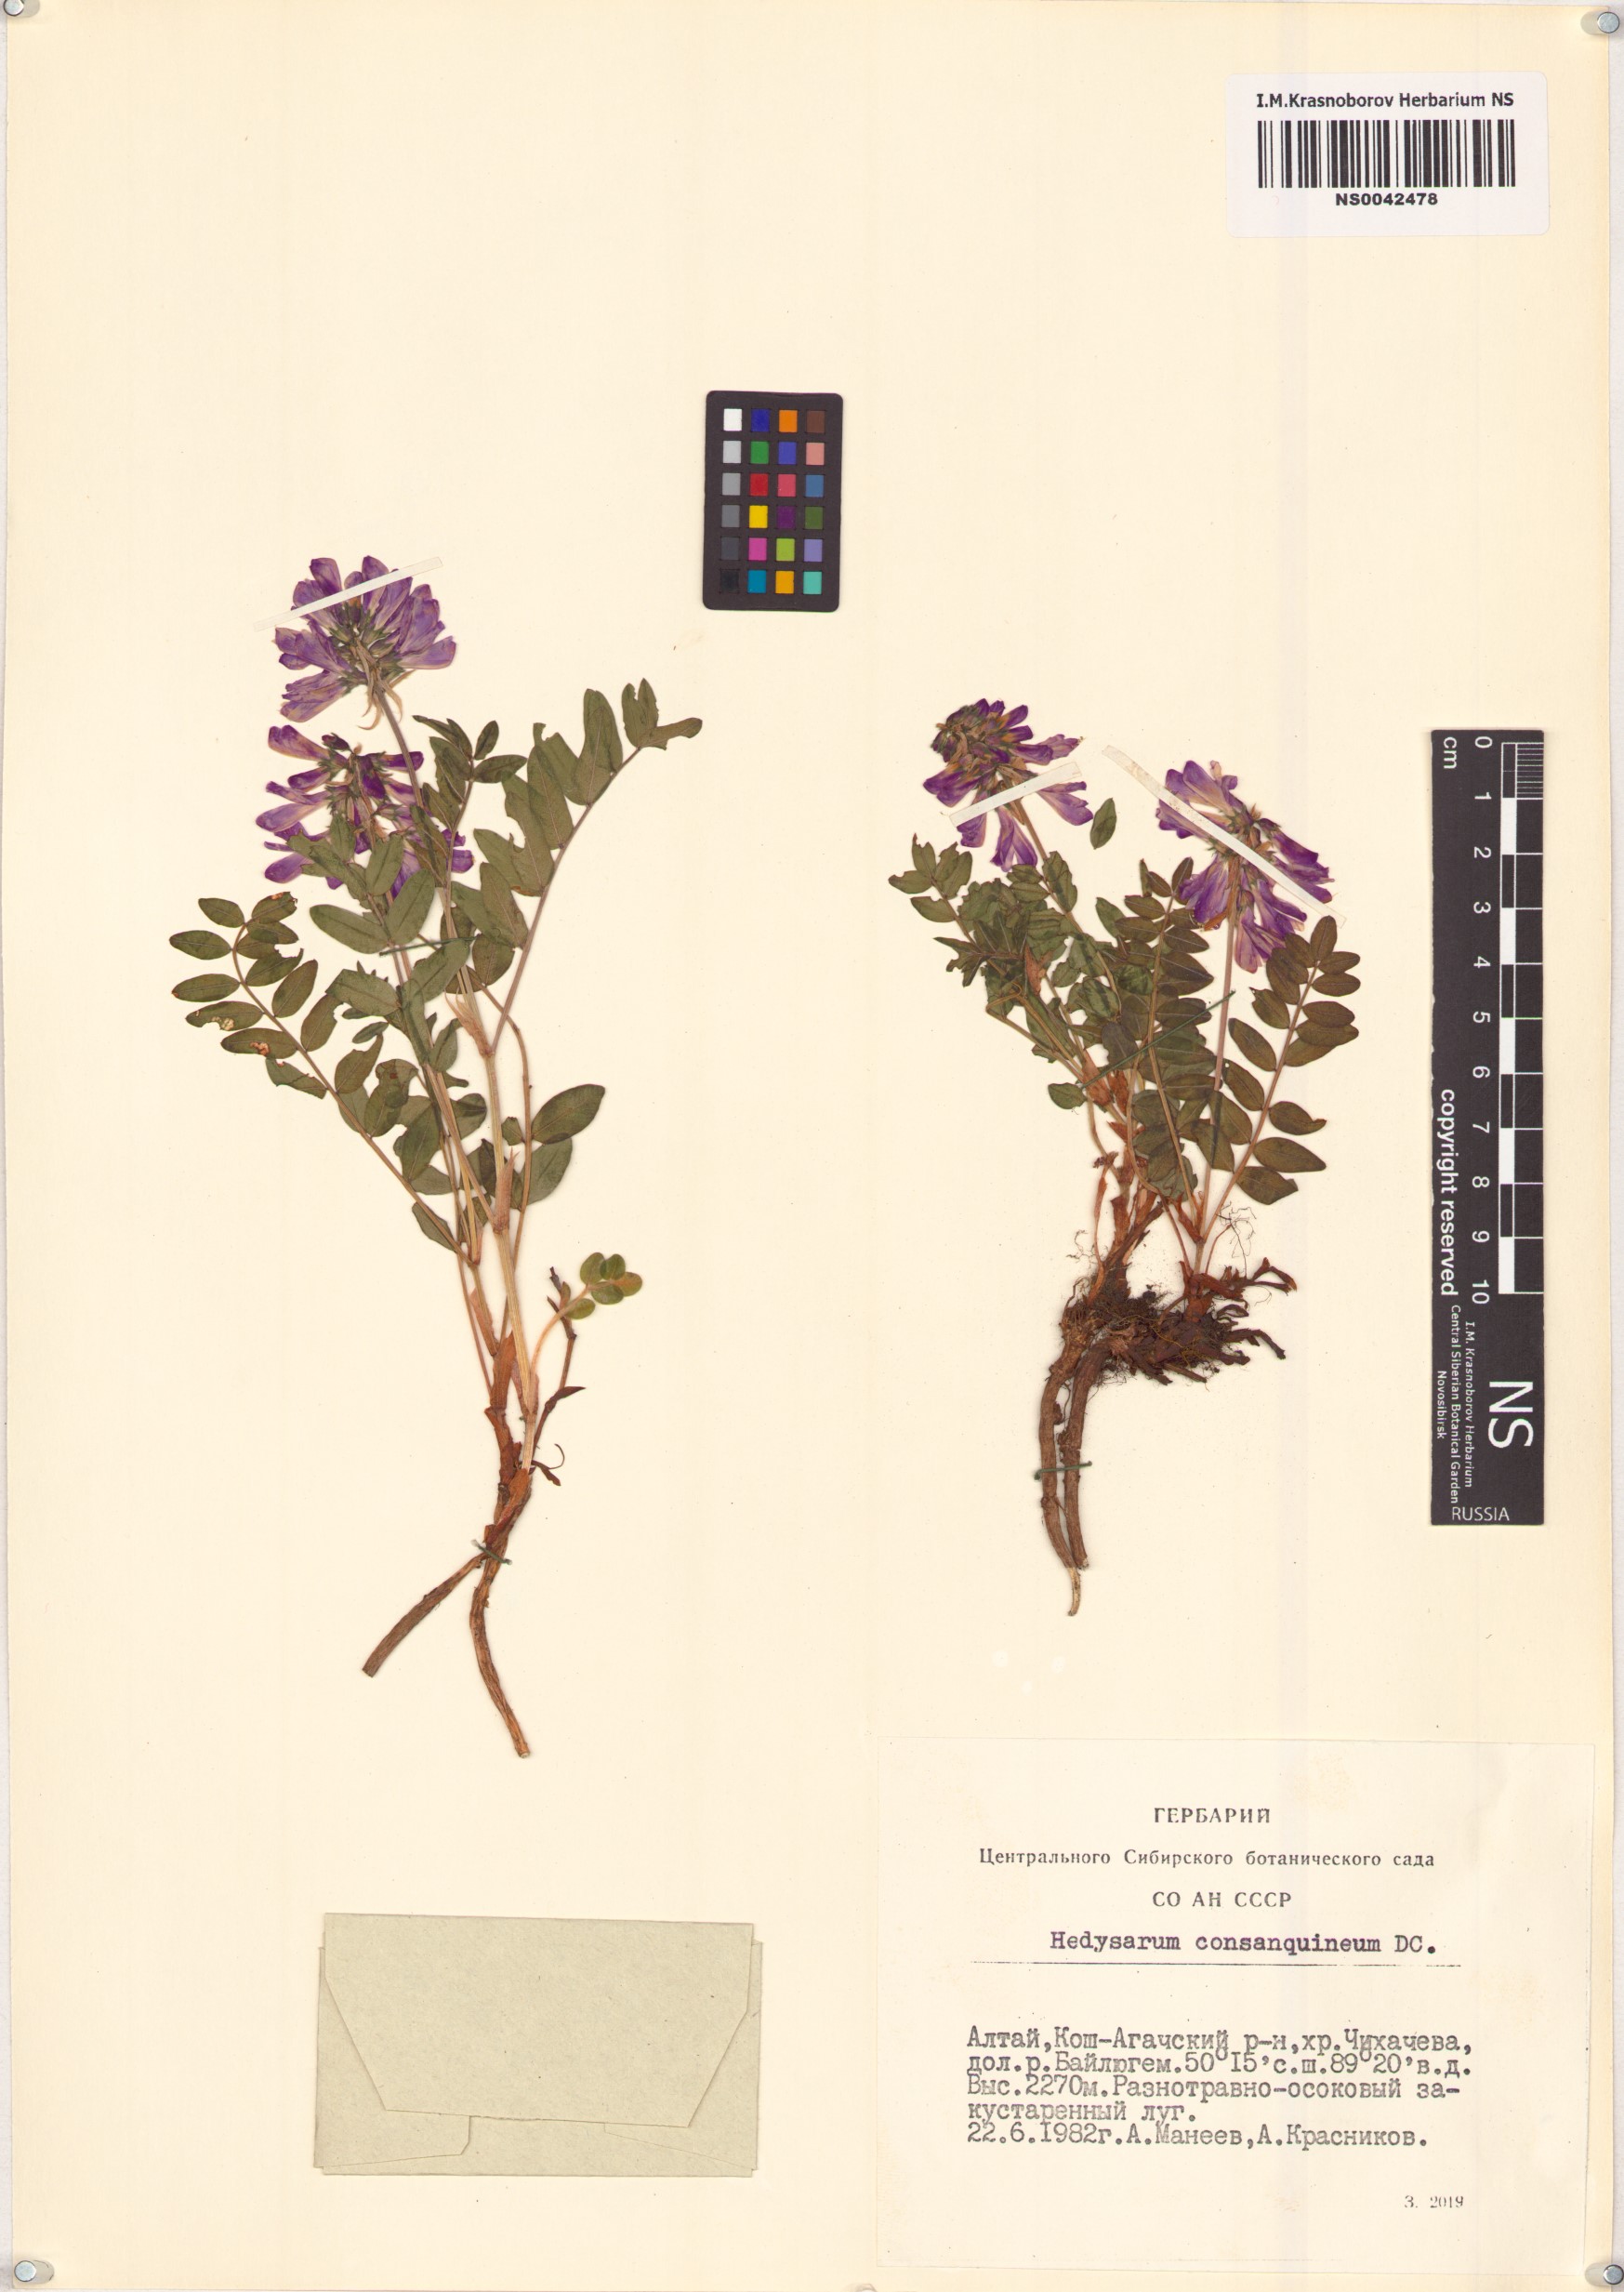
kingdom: Plantae
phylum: Tracheophyta
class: Magnoliopsida
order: Fabales
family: Fabaceae
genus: Hedysarum
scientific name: Hedysarum consanguineum
